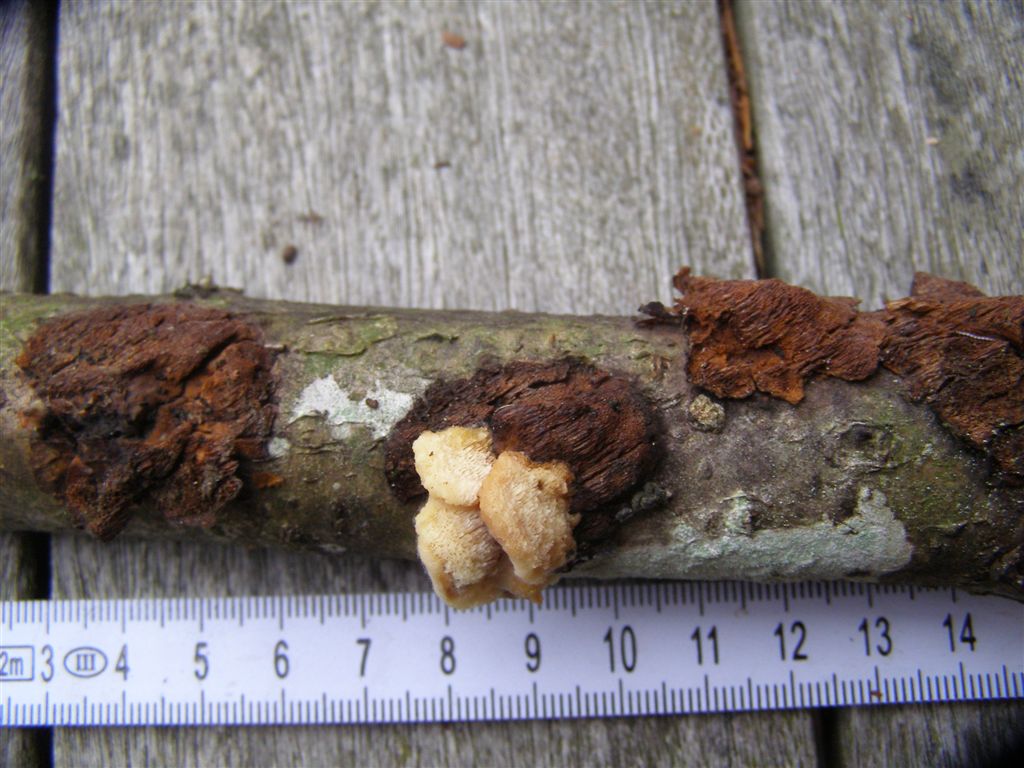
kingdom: Fungi
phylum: Basidiomycota
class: Agaricomycetes
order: Polyporales
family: Steccherinaceae
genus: Antrodiella
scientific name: Antrodiella serpula
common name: gulrandet elastikporesvamp
